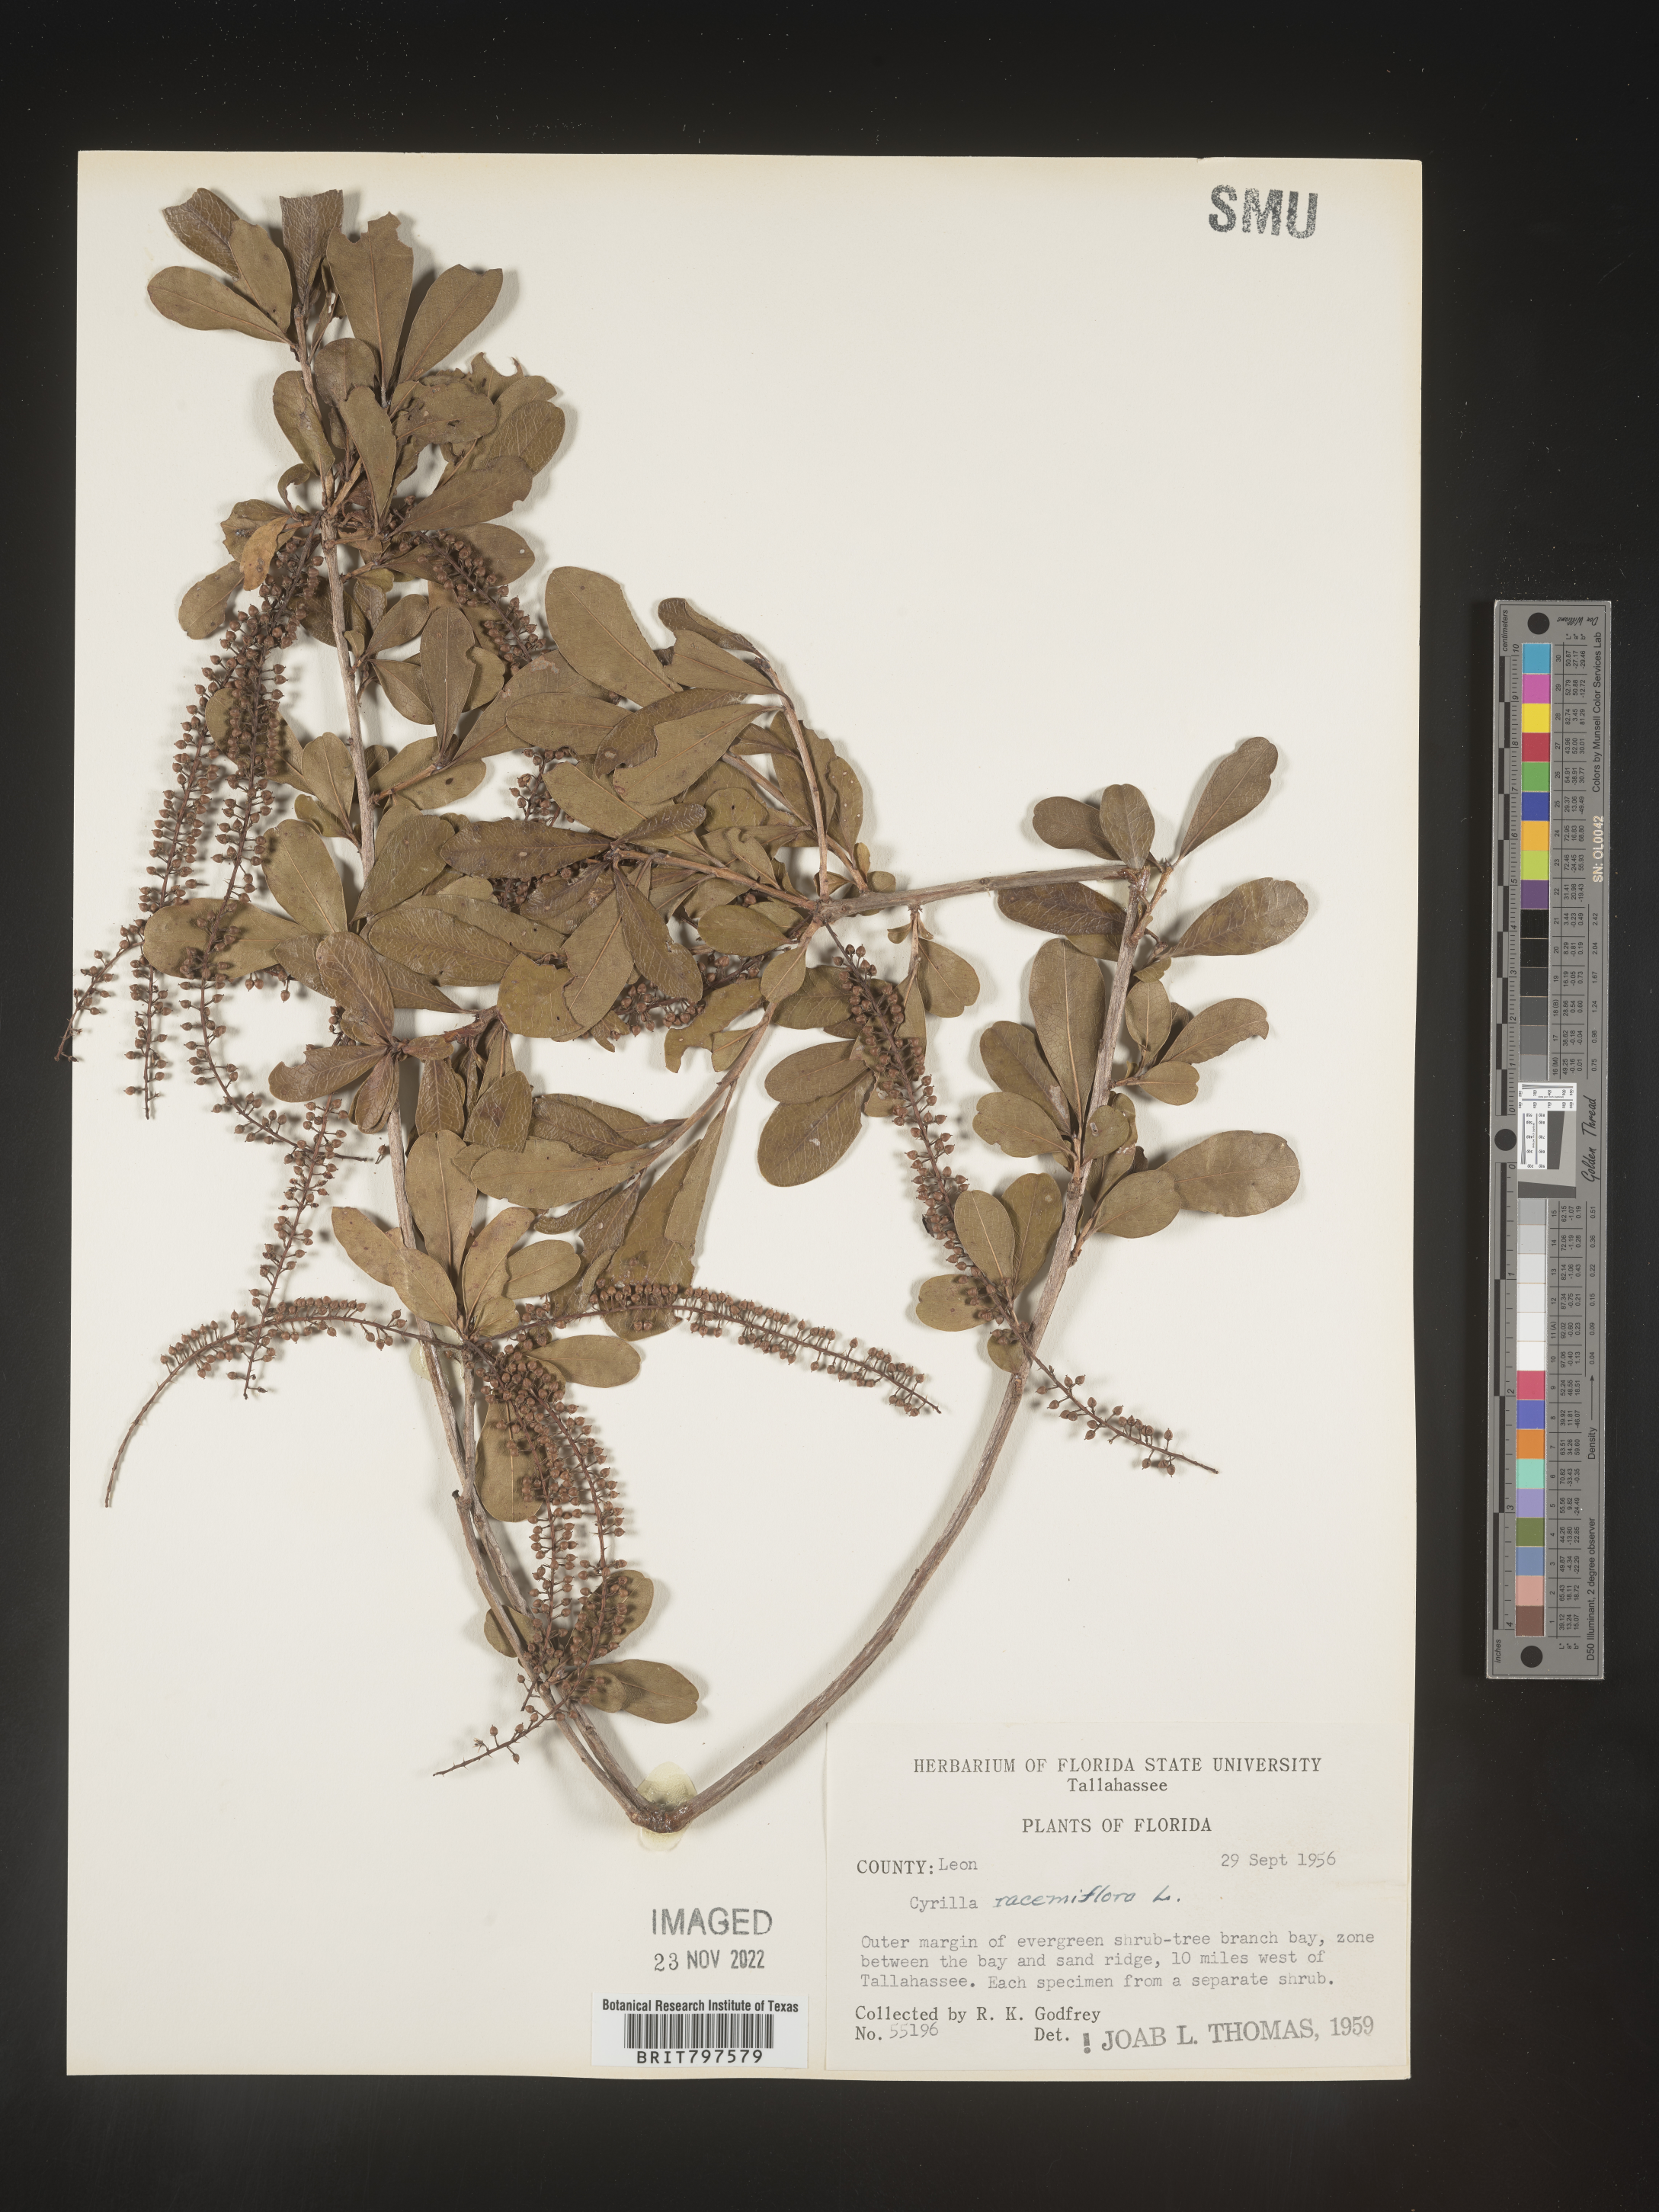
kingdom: Plantae
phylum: Tracheophyta
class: Magnoliopsida
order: Ericales
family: Cyrillaceae
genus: Cyrilla
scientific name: Cyrilla racemiflora
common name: Black titi
